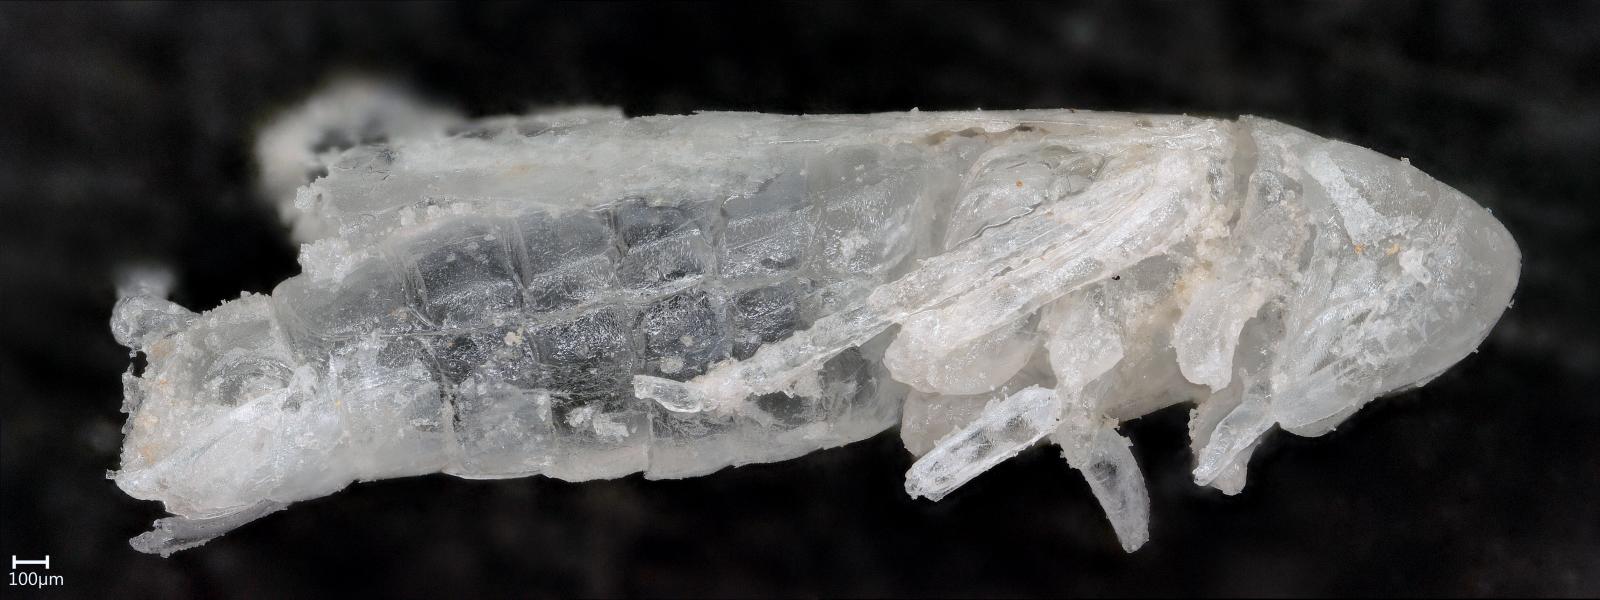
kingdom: Animalia
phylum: Arthropoda
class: Insecta
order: Hemiptera
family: Cicadellidae
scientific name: Cicadellidae
